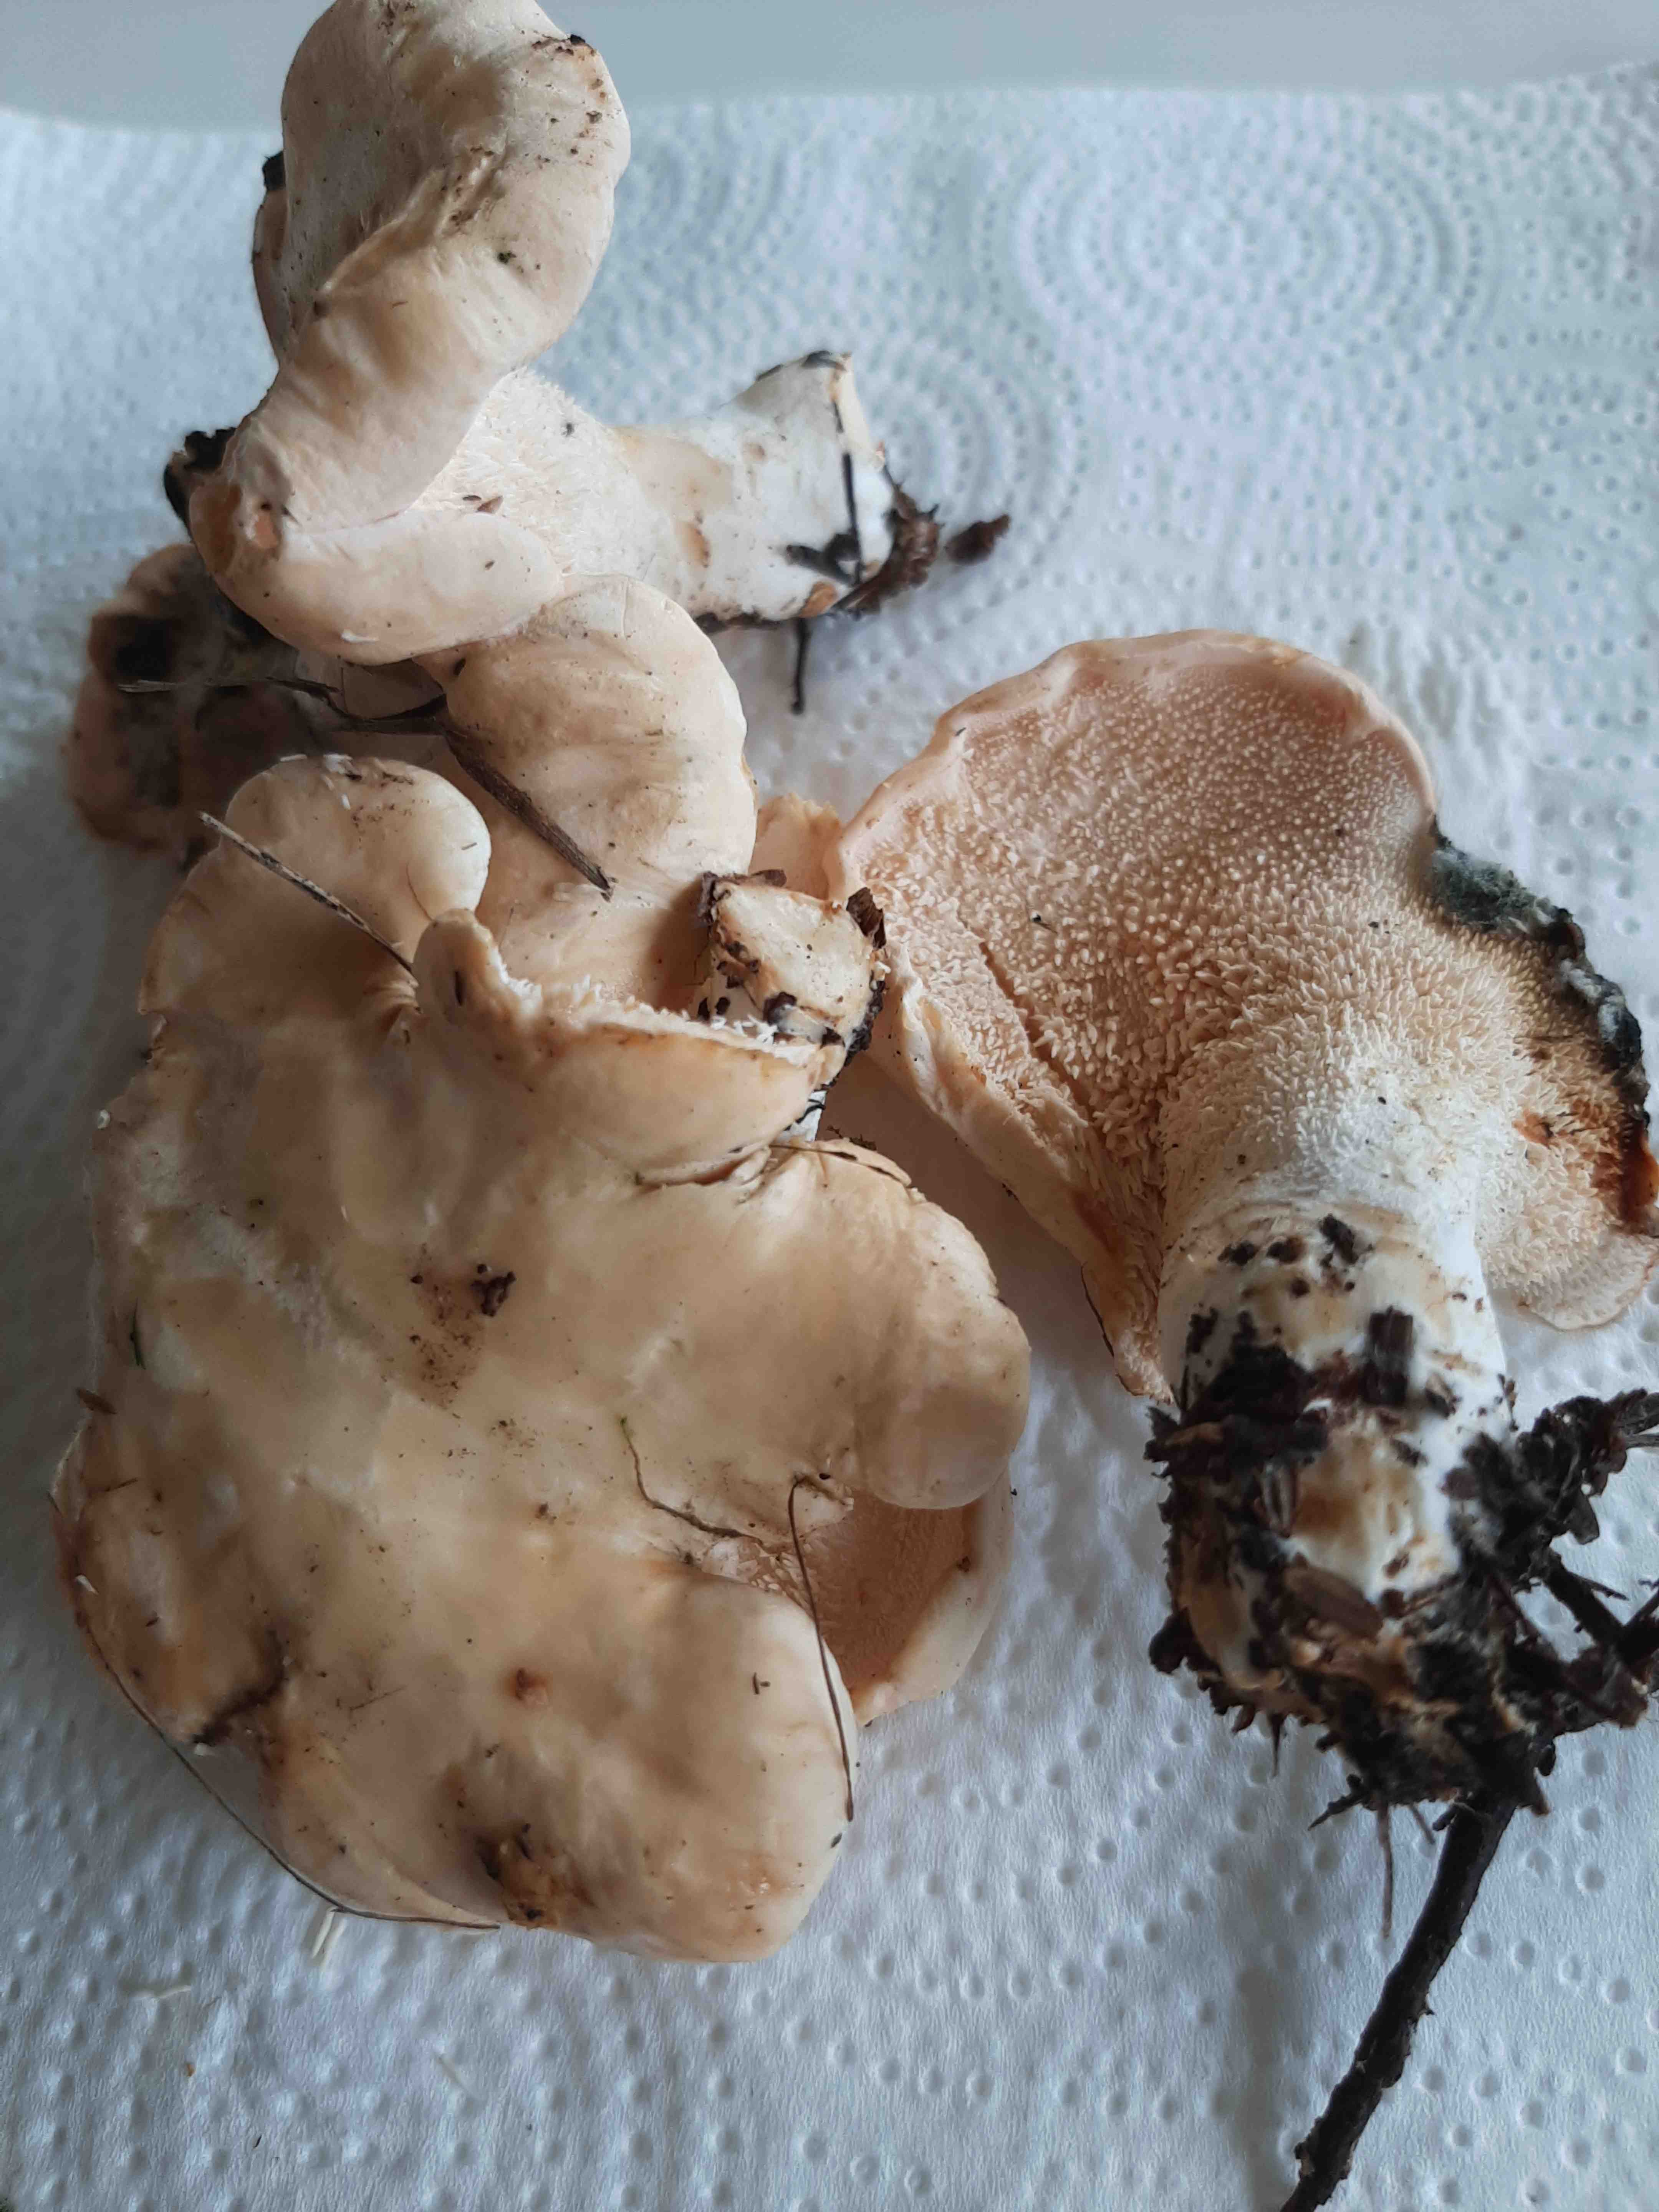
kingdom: Fungi
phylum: Basidiomycota
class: Agaricomycetes
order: Cantharellales
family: Hydnaceae
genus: Hydnum
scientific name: Hydnum repandum
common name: almindelig pigsvamp
